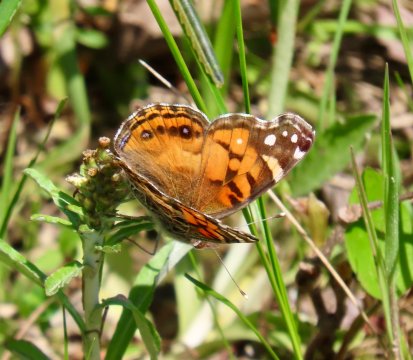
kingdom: Animalia
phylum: Arthropoda
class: Insecta
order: Lepidoptera
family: Nymphalidae
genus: Vanessa
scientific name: Vanessa virginiensis
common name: American Lady
